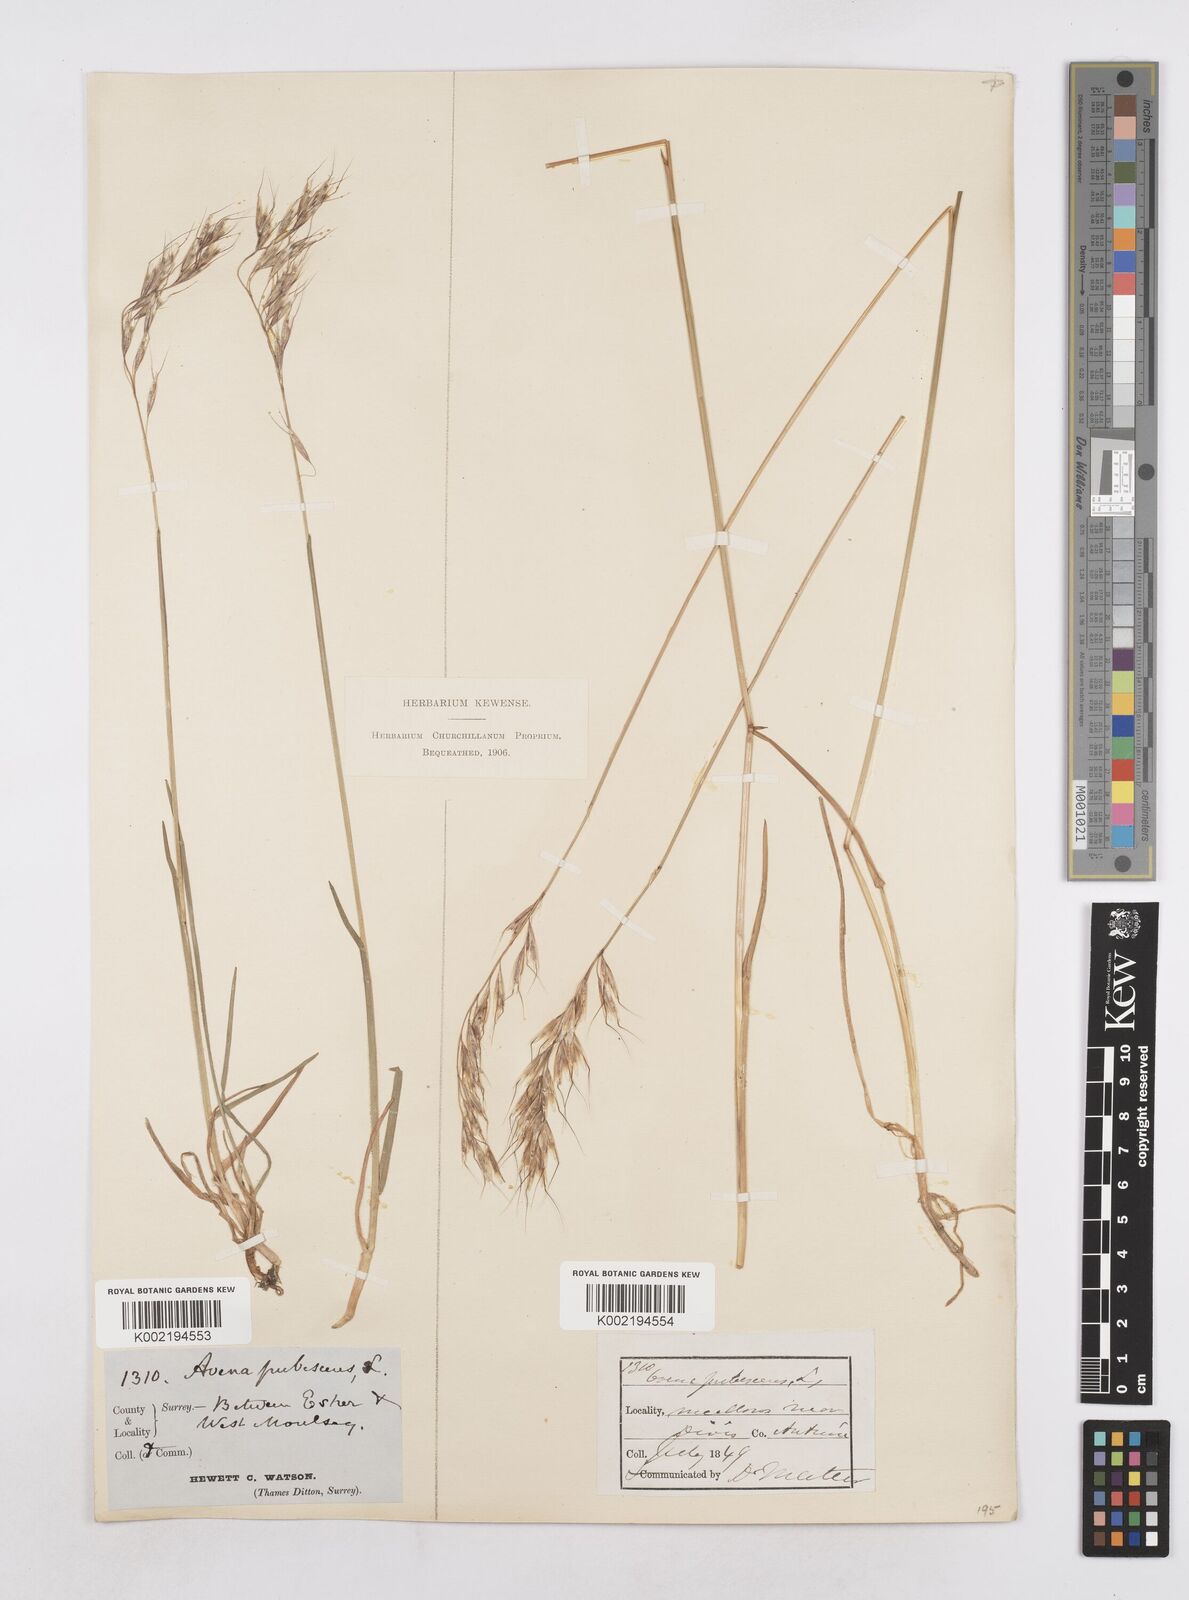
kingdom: Plantae
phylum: Tracheophyta
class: Liliopsida
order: Poales
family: Poaceae
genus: Avenula
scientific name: Avenula pubescens
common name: Downy alpine oatgrass
